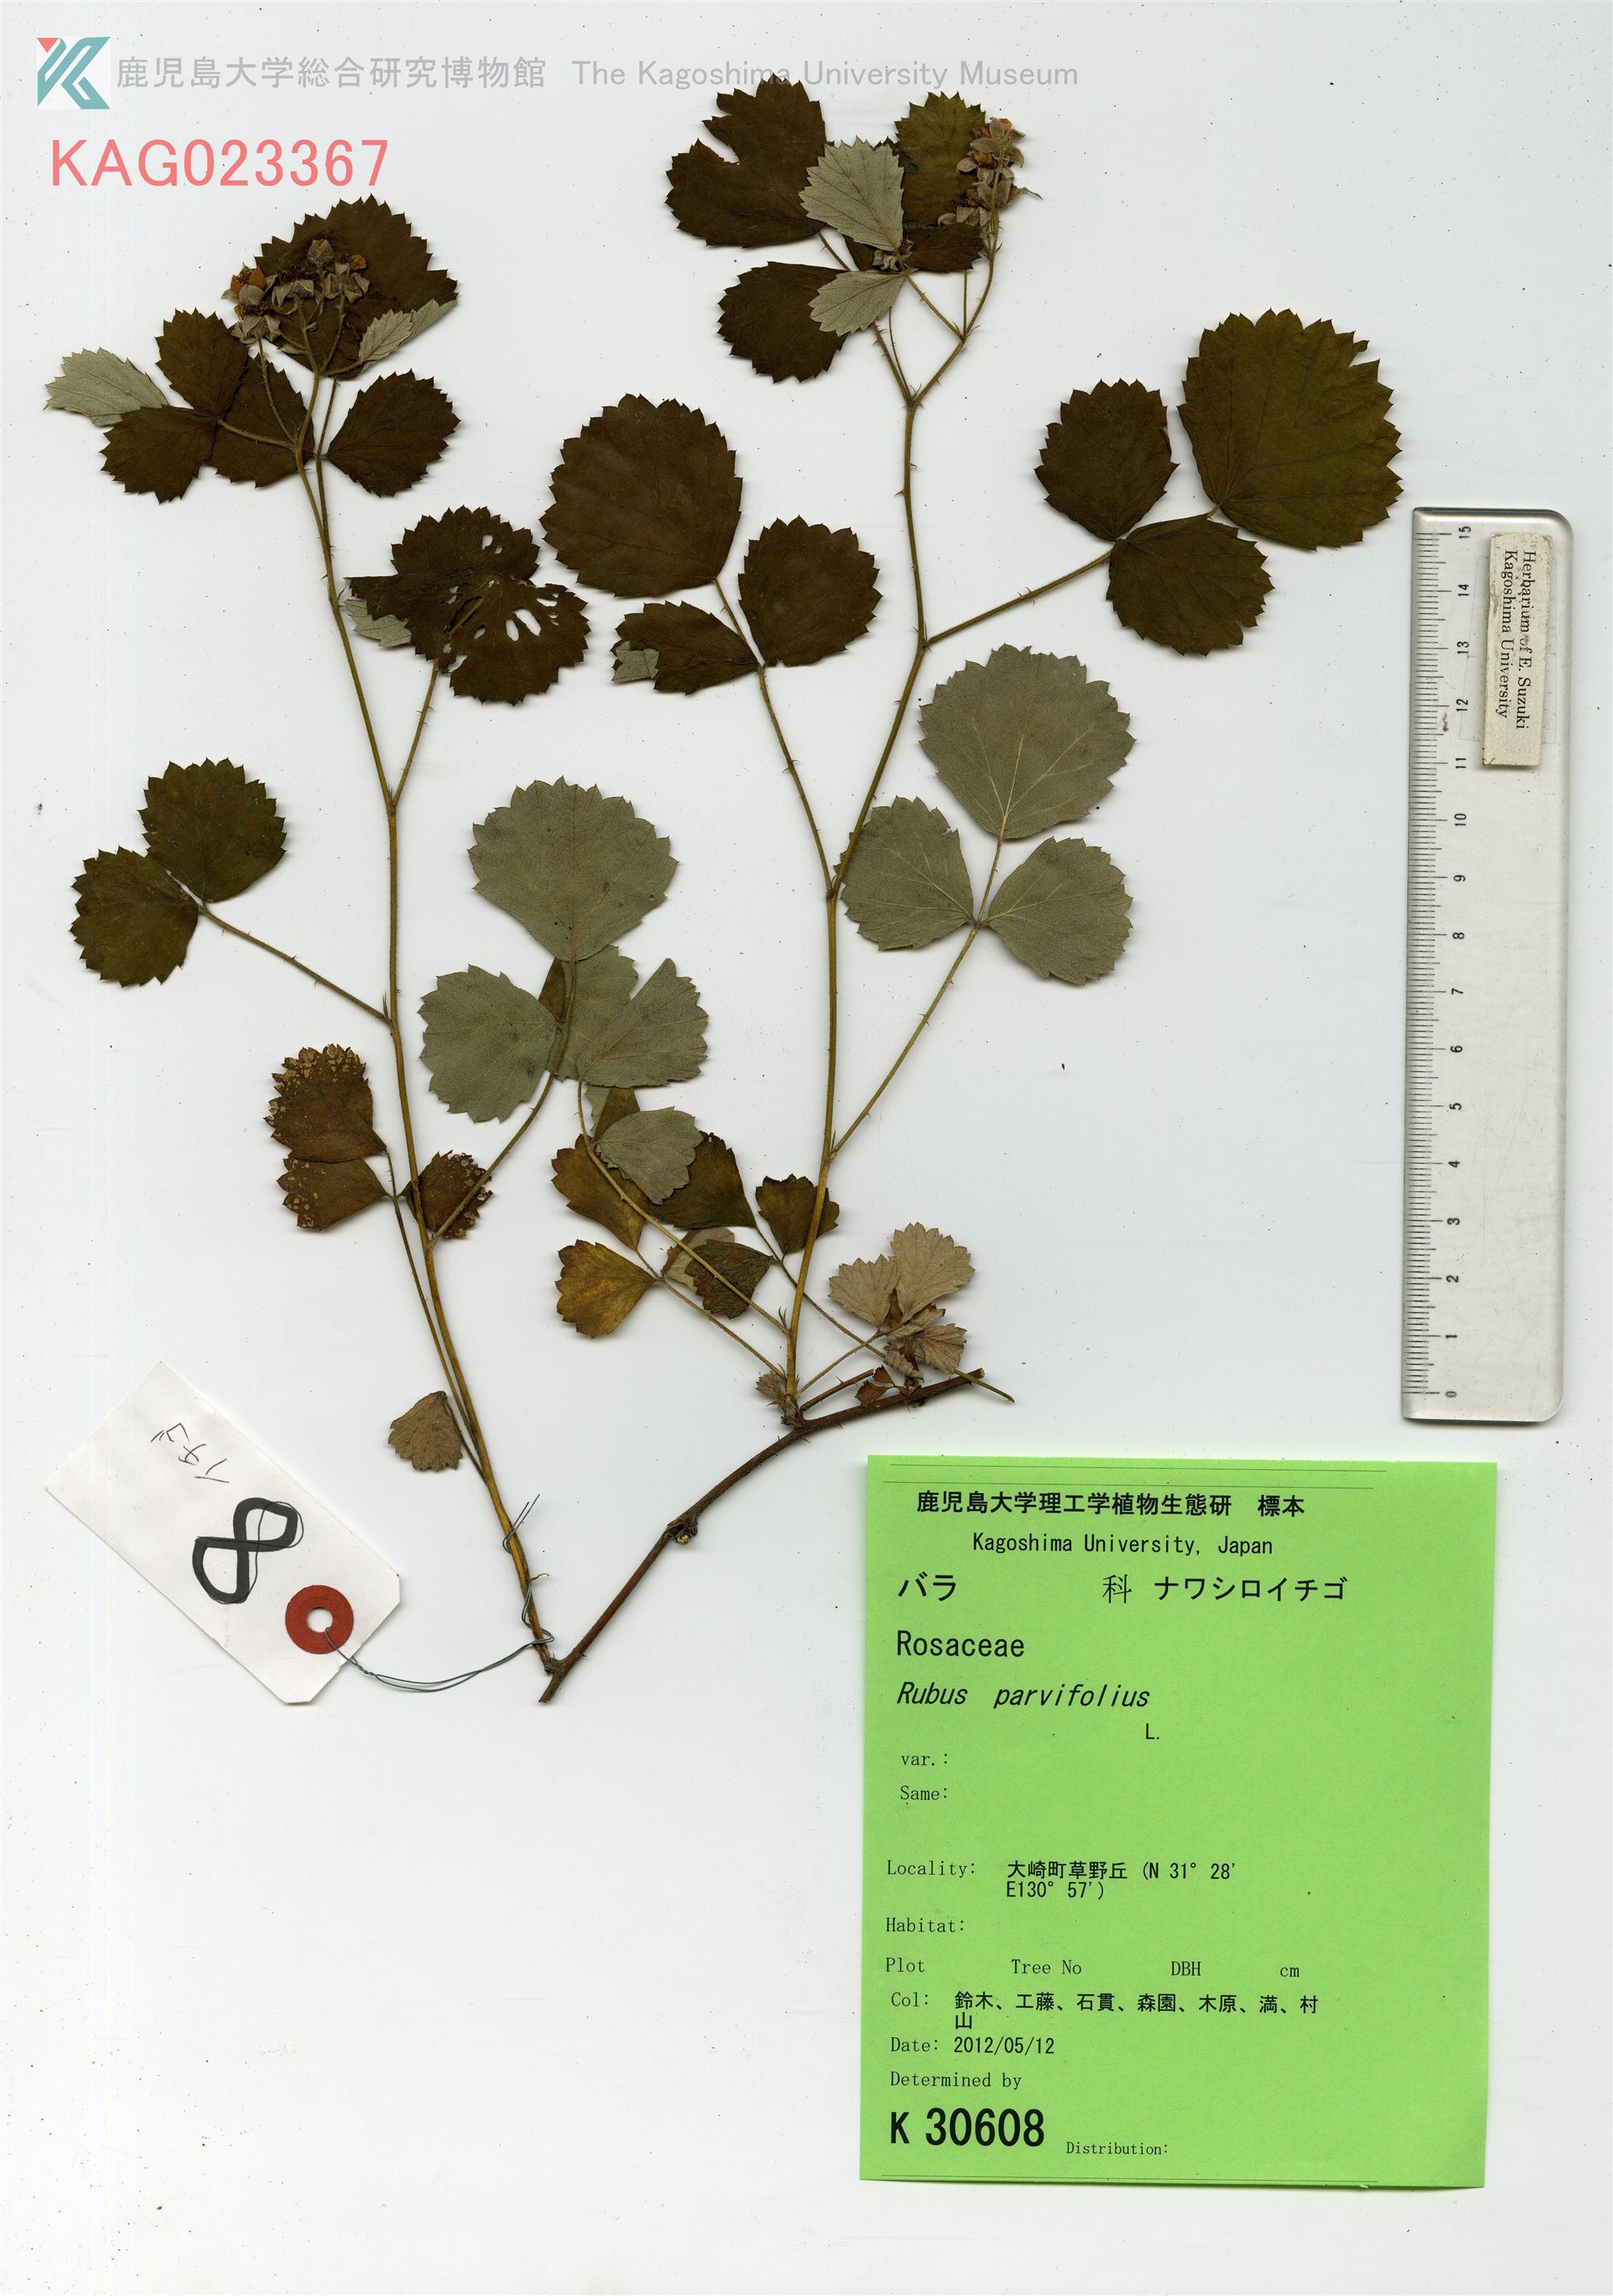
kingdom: Plantae
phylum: Tracheophyta
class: Magnoliopsida
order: Rosales
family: Rosaceae
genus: Rubus
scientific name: Rubus parvifolius
